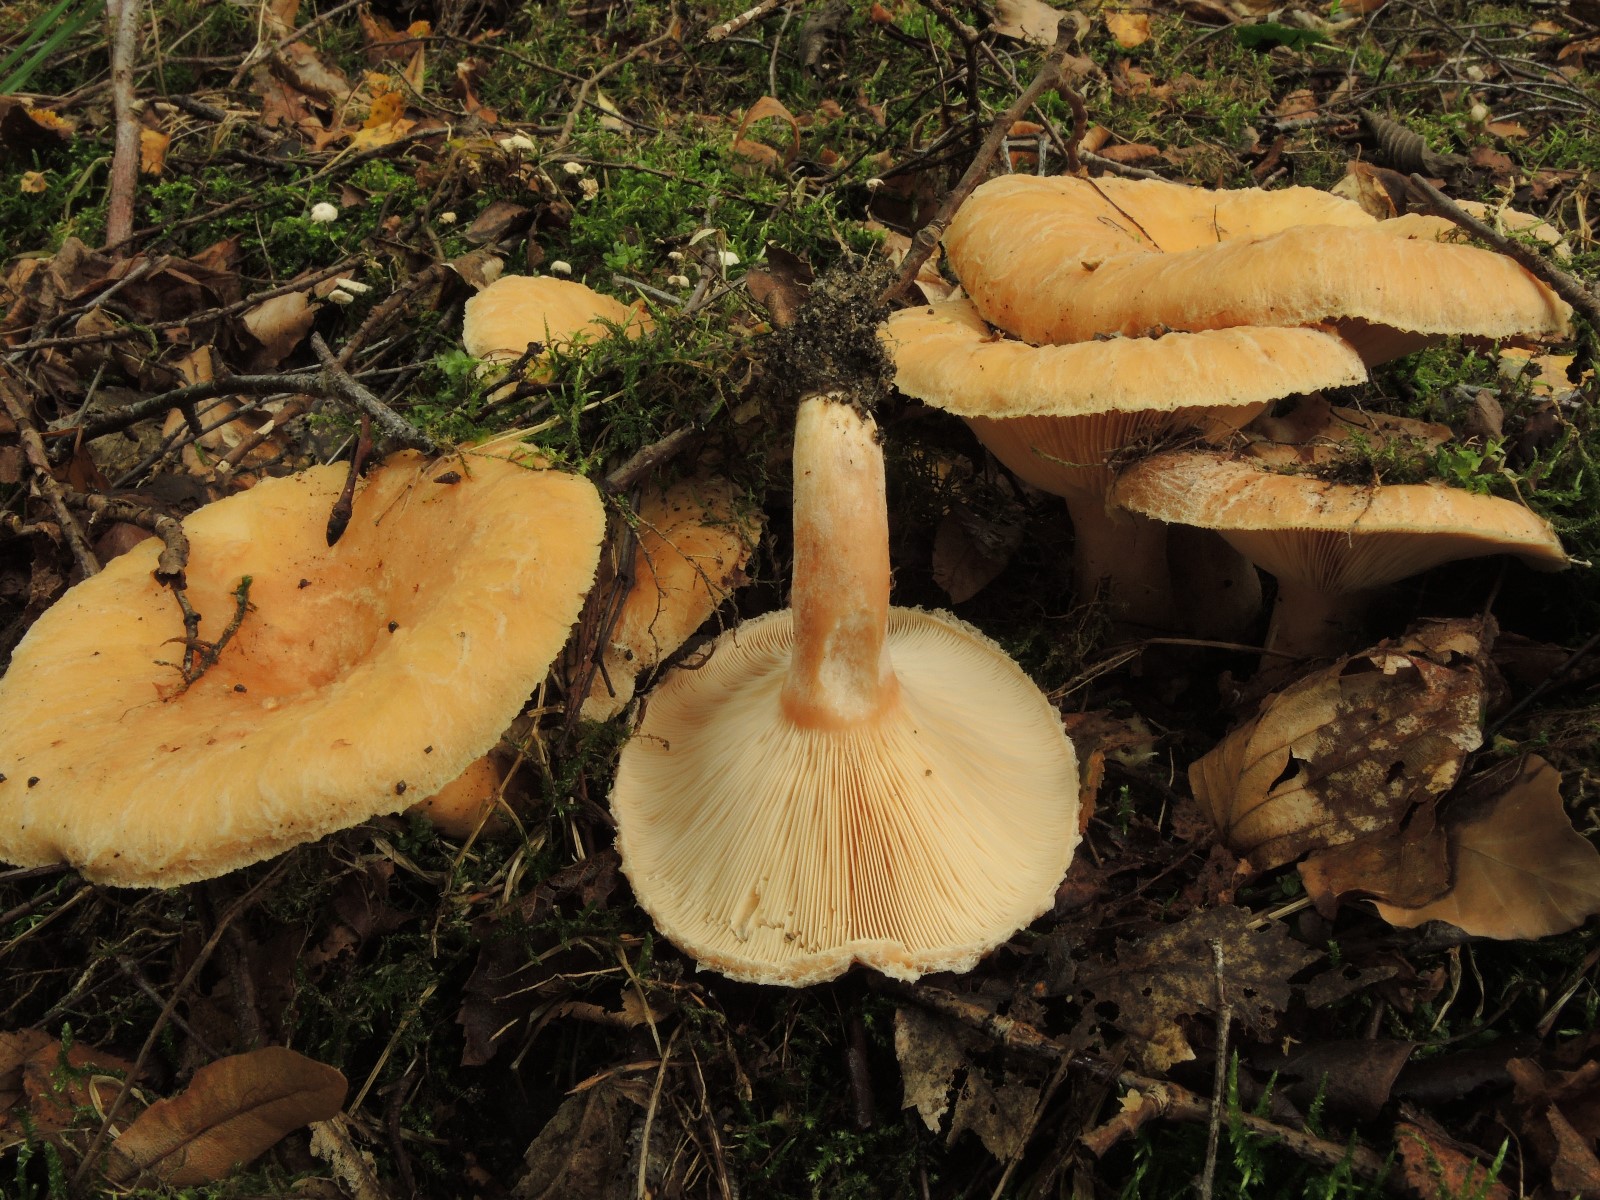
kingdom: Fungi
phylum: Basidiomycota
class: Agaricomycetes
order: Russulales
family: Russulaceae
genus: Lactarius
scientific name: Lactarius pubescens
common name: dunet mælkehat
